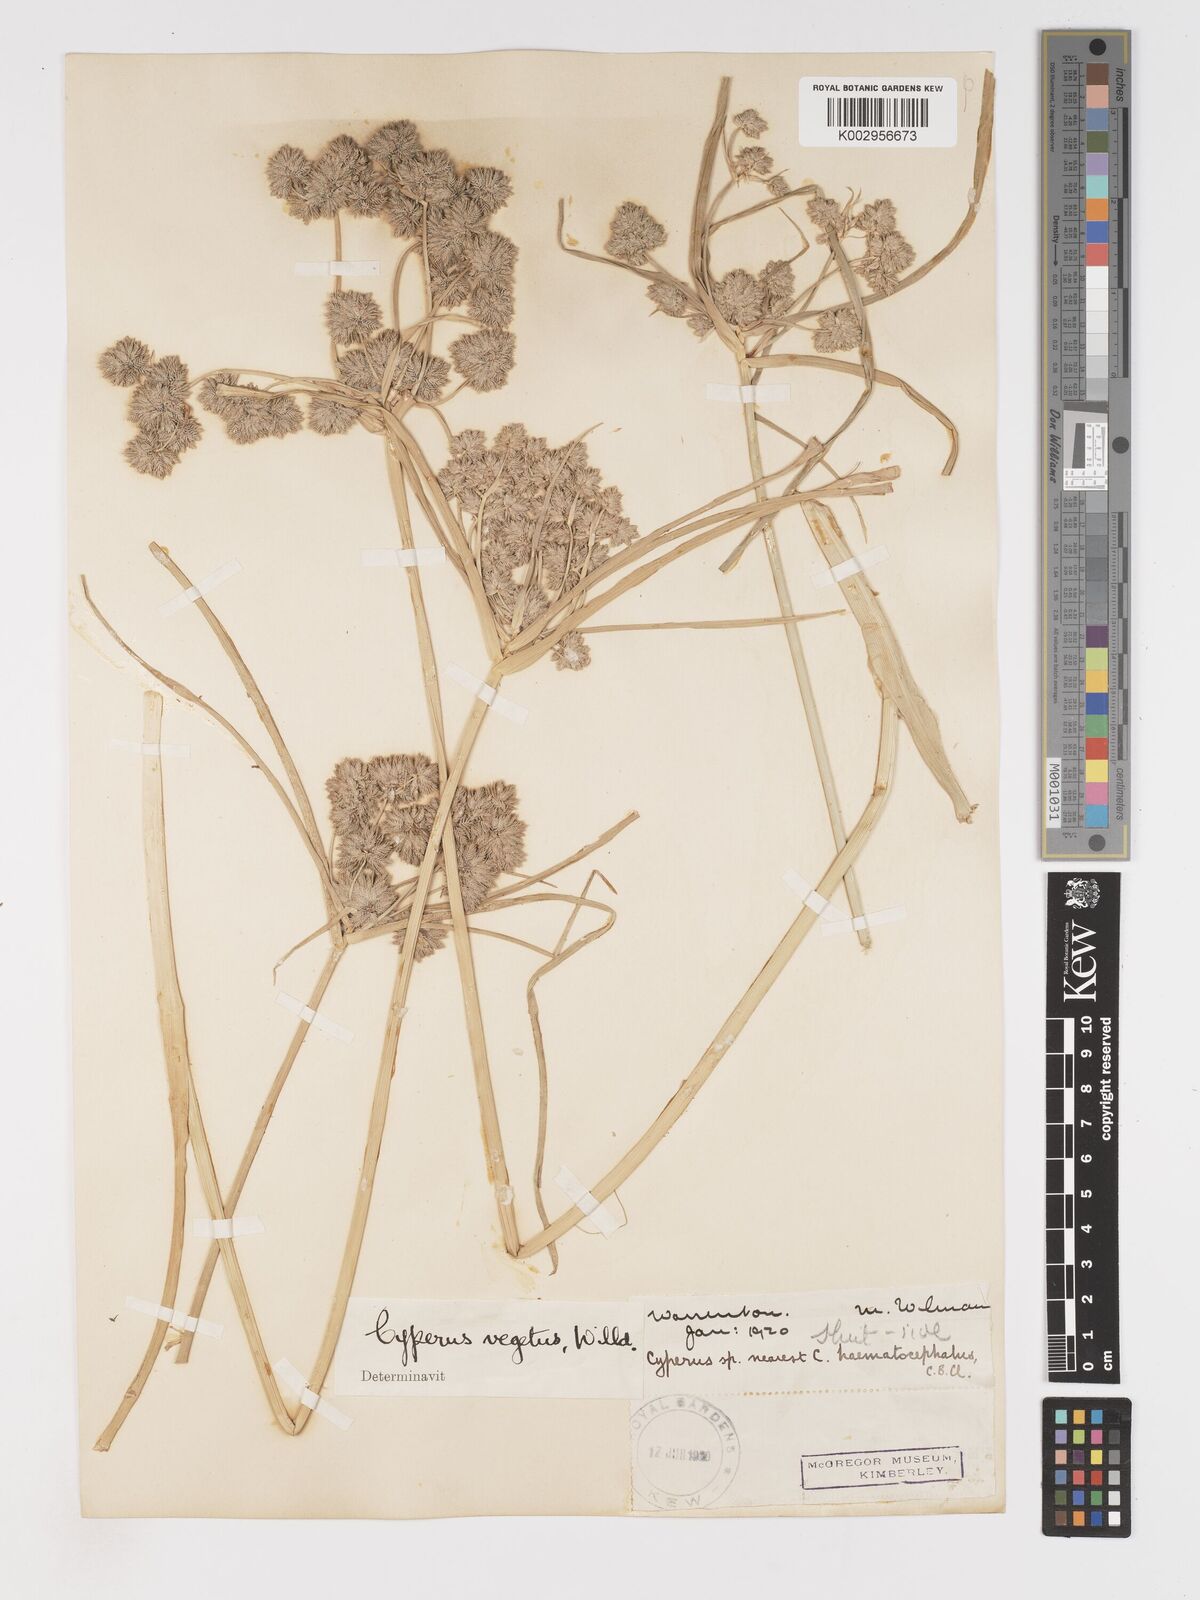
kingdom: Plantae
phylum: Tracheophyta
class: Liliopsida
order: Poales
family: Cyperaceae
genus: Cyperus
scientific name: Cyperus eragrostis
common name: Tall flatsedge
